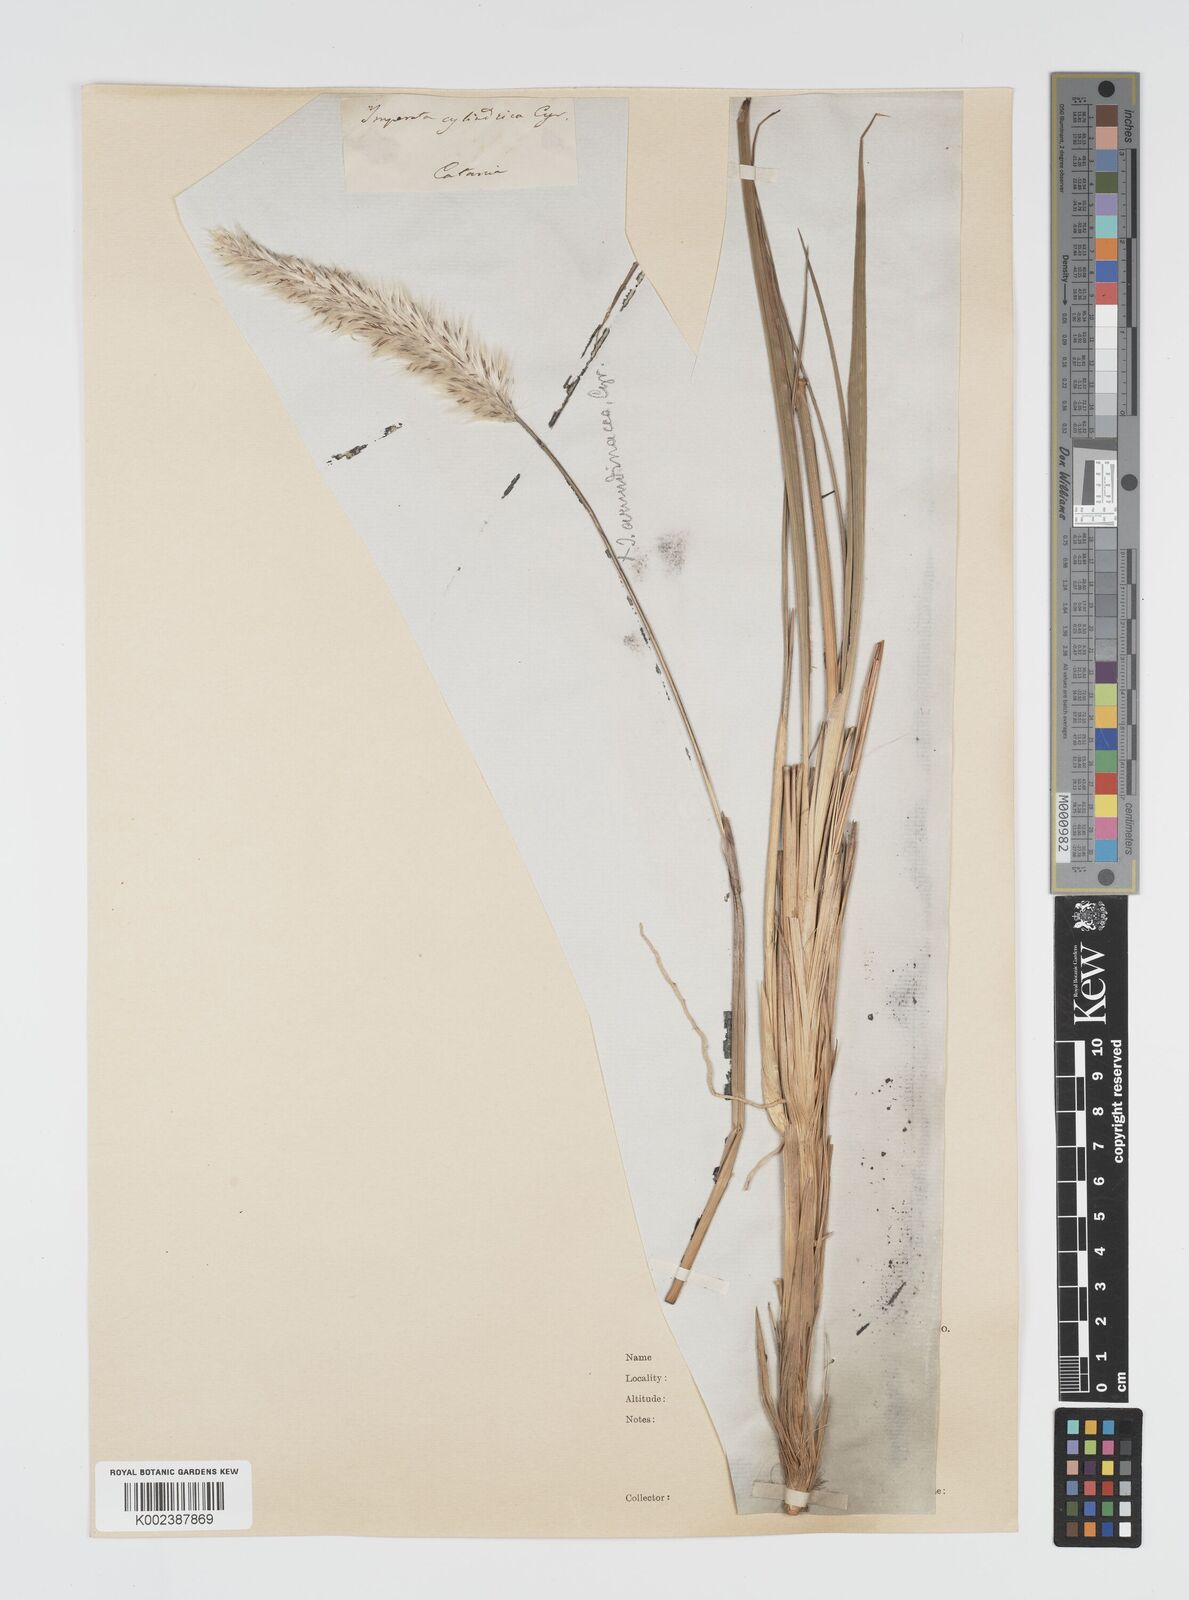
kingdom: Plantae
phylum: Tracheophyta
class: Liliopsida
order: Poales
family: Poaceae
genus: Imperata
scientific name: Imperata cylindrica
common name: Cogongrass
